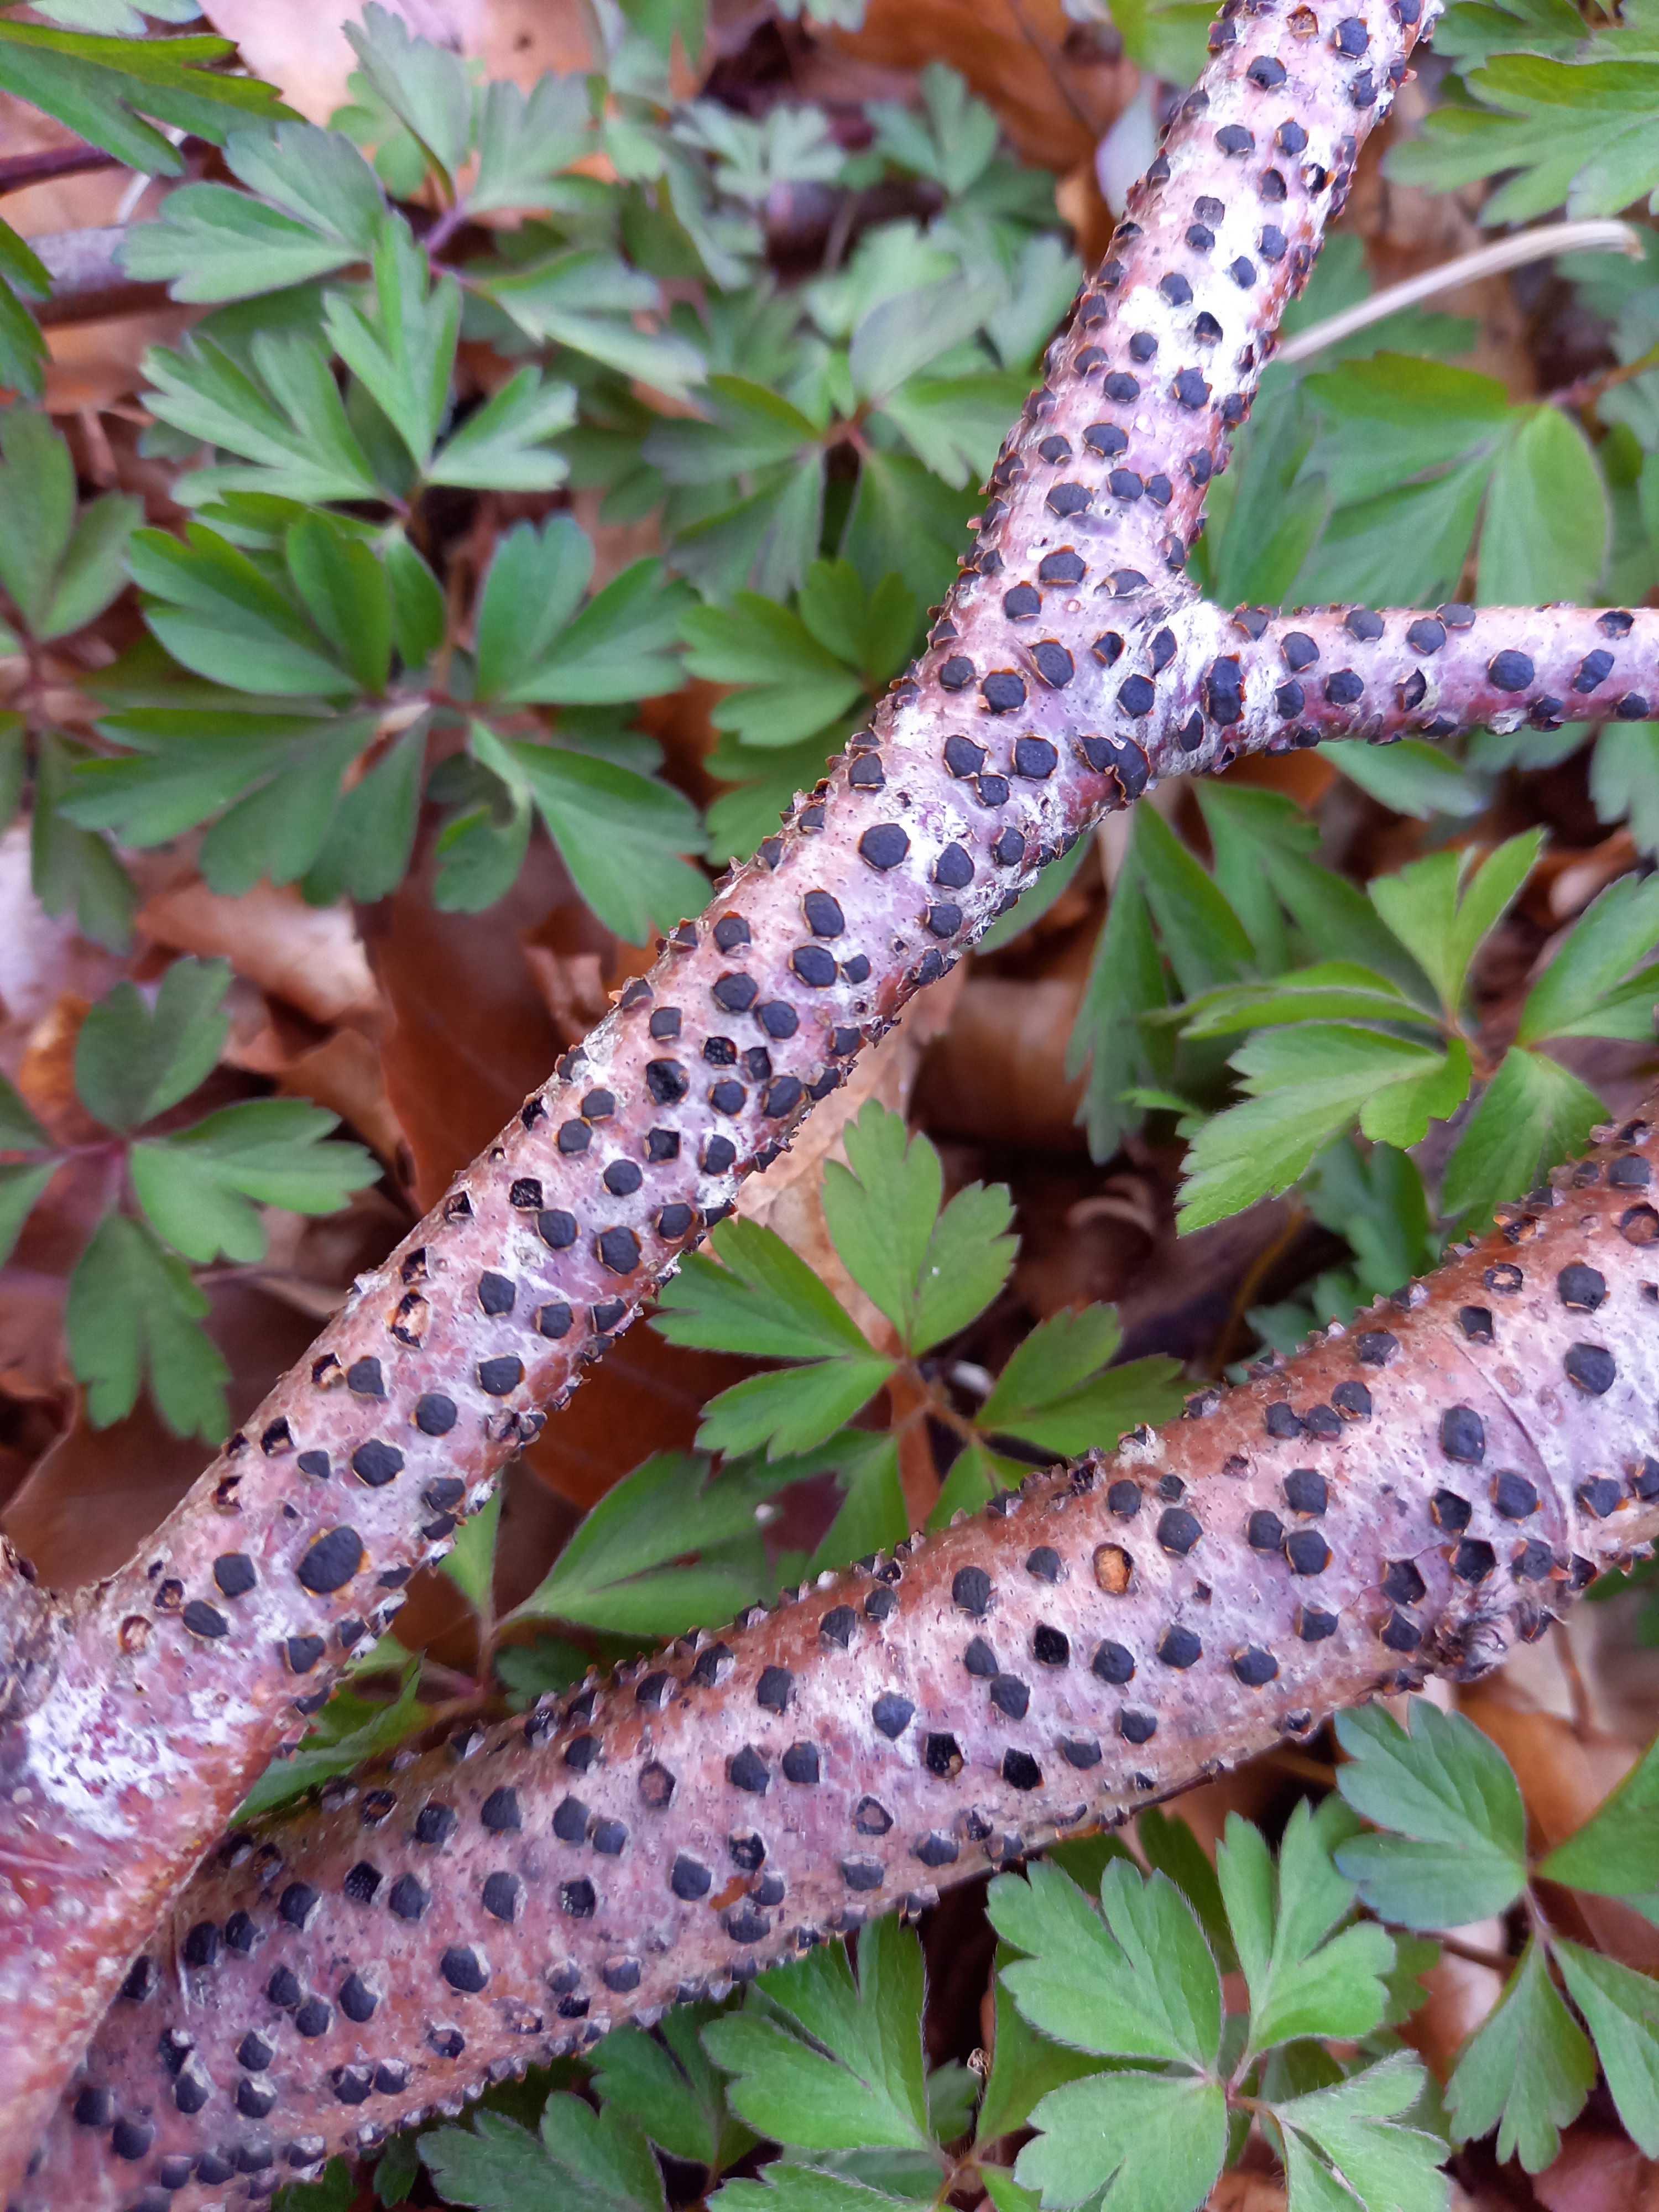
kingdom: Fungi
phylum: Ascomycota
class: Sordariomycetes
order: Xylariales
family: Diatrypaceae
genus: Diatrype
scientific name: Diatrype disciformis
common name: kant-kulskorpe
